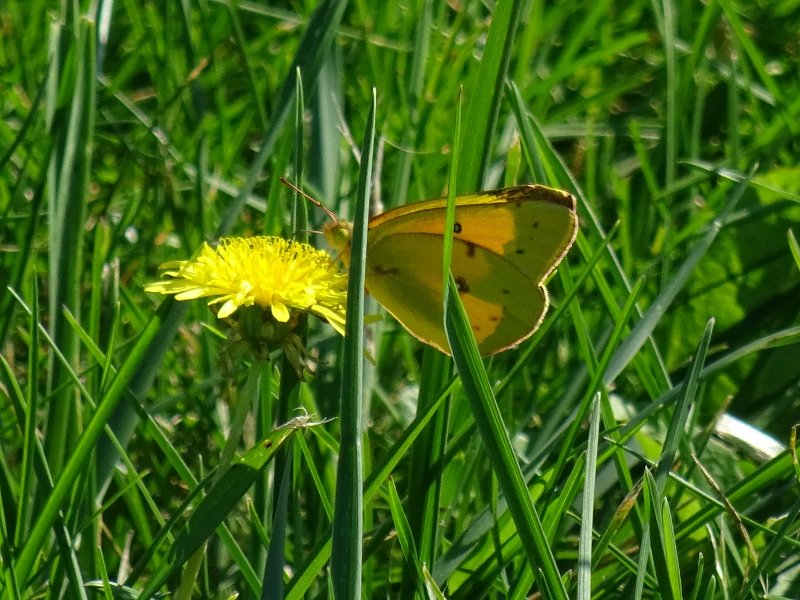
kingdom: Animalia
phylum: Arthropoda
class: Insecta
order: Lepidoptera
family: Pieridae
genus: Colias
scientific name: Colias eurytheme
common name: Orange Sulphur
